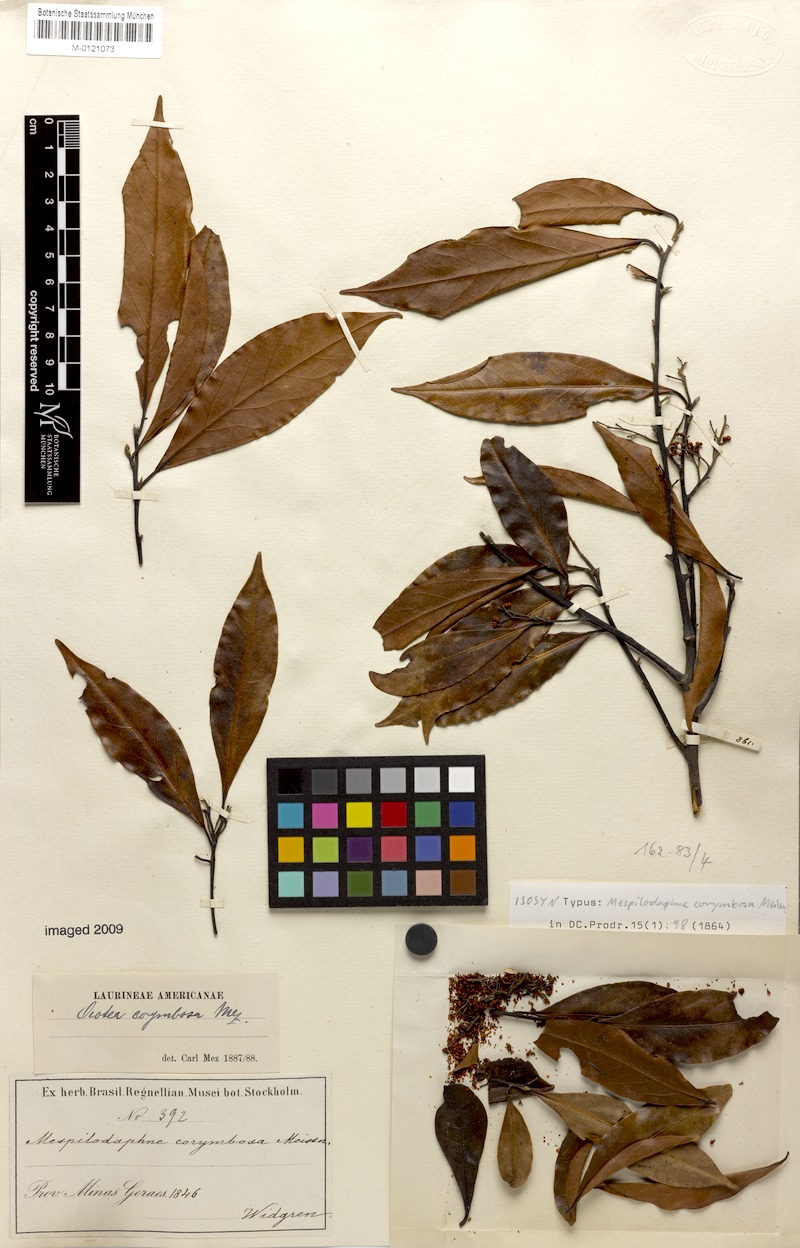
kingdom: Plantae
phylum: Tracheophyta
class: Magnoliopsida
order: Laurales
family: Lauraceae
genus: Mespilodaphne
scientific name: Mespilodaphne corymbosa
